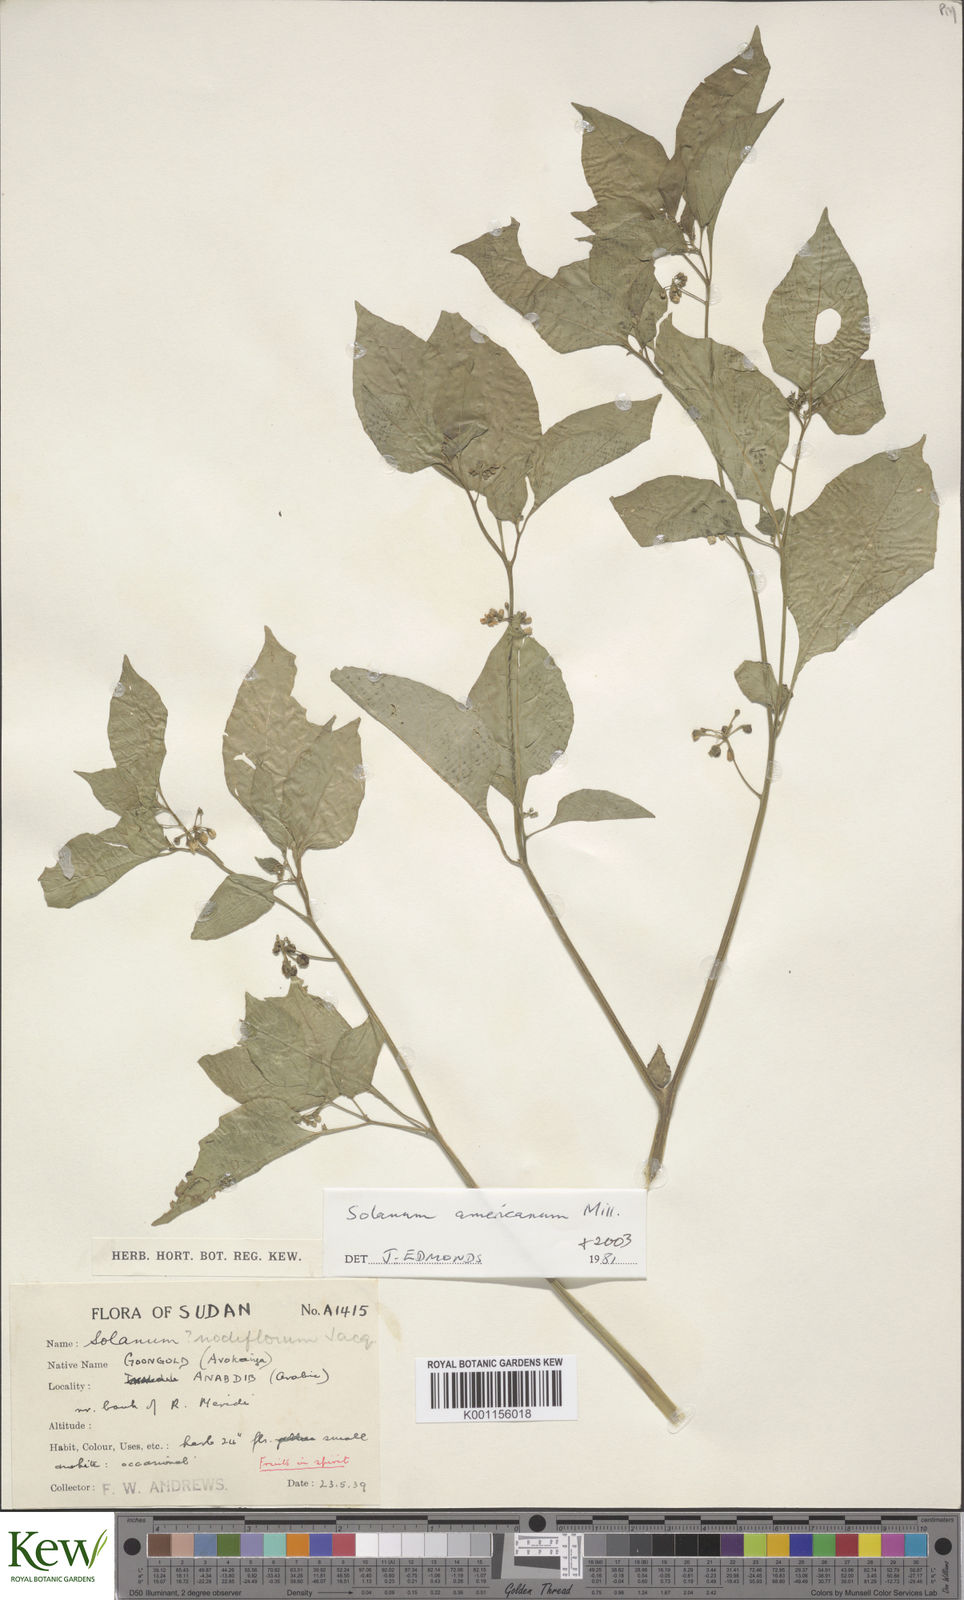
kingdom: Plantae
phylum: Tracheophyta
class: Magnoliopsida
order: Solanales
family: Solanaceae
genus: Solanum
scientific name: Solanum americanum
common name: American black nightshade
